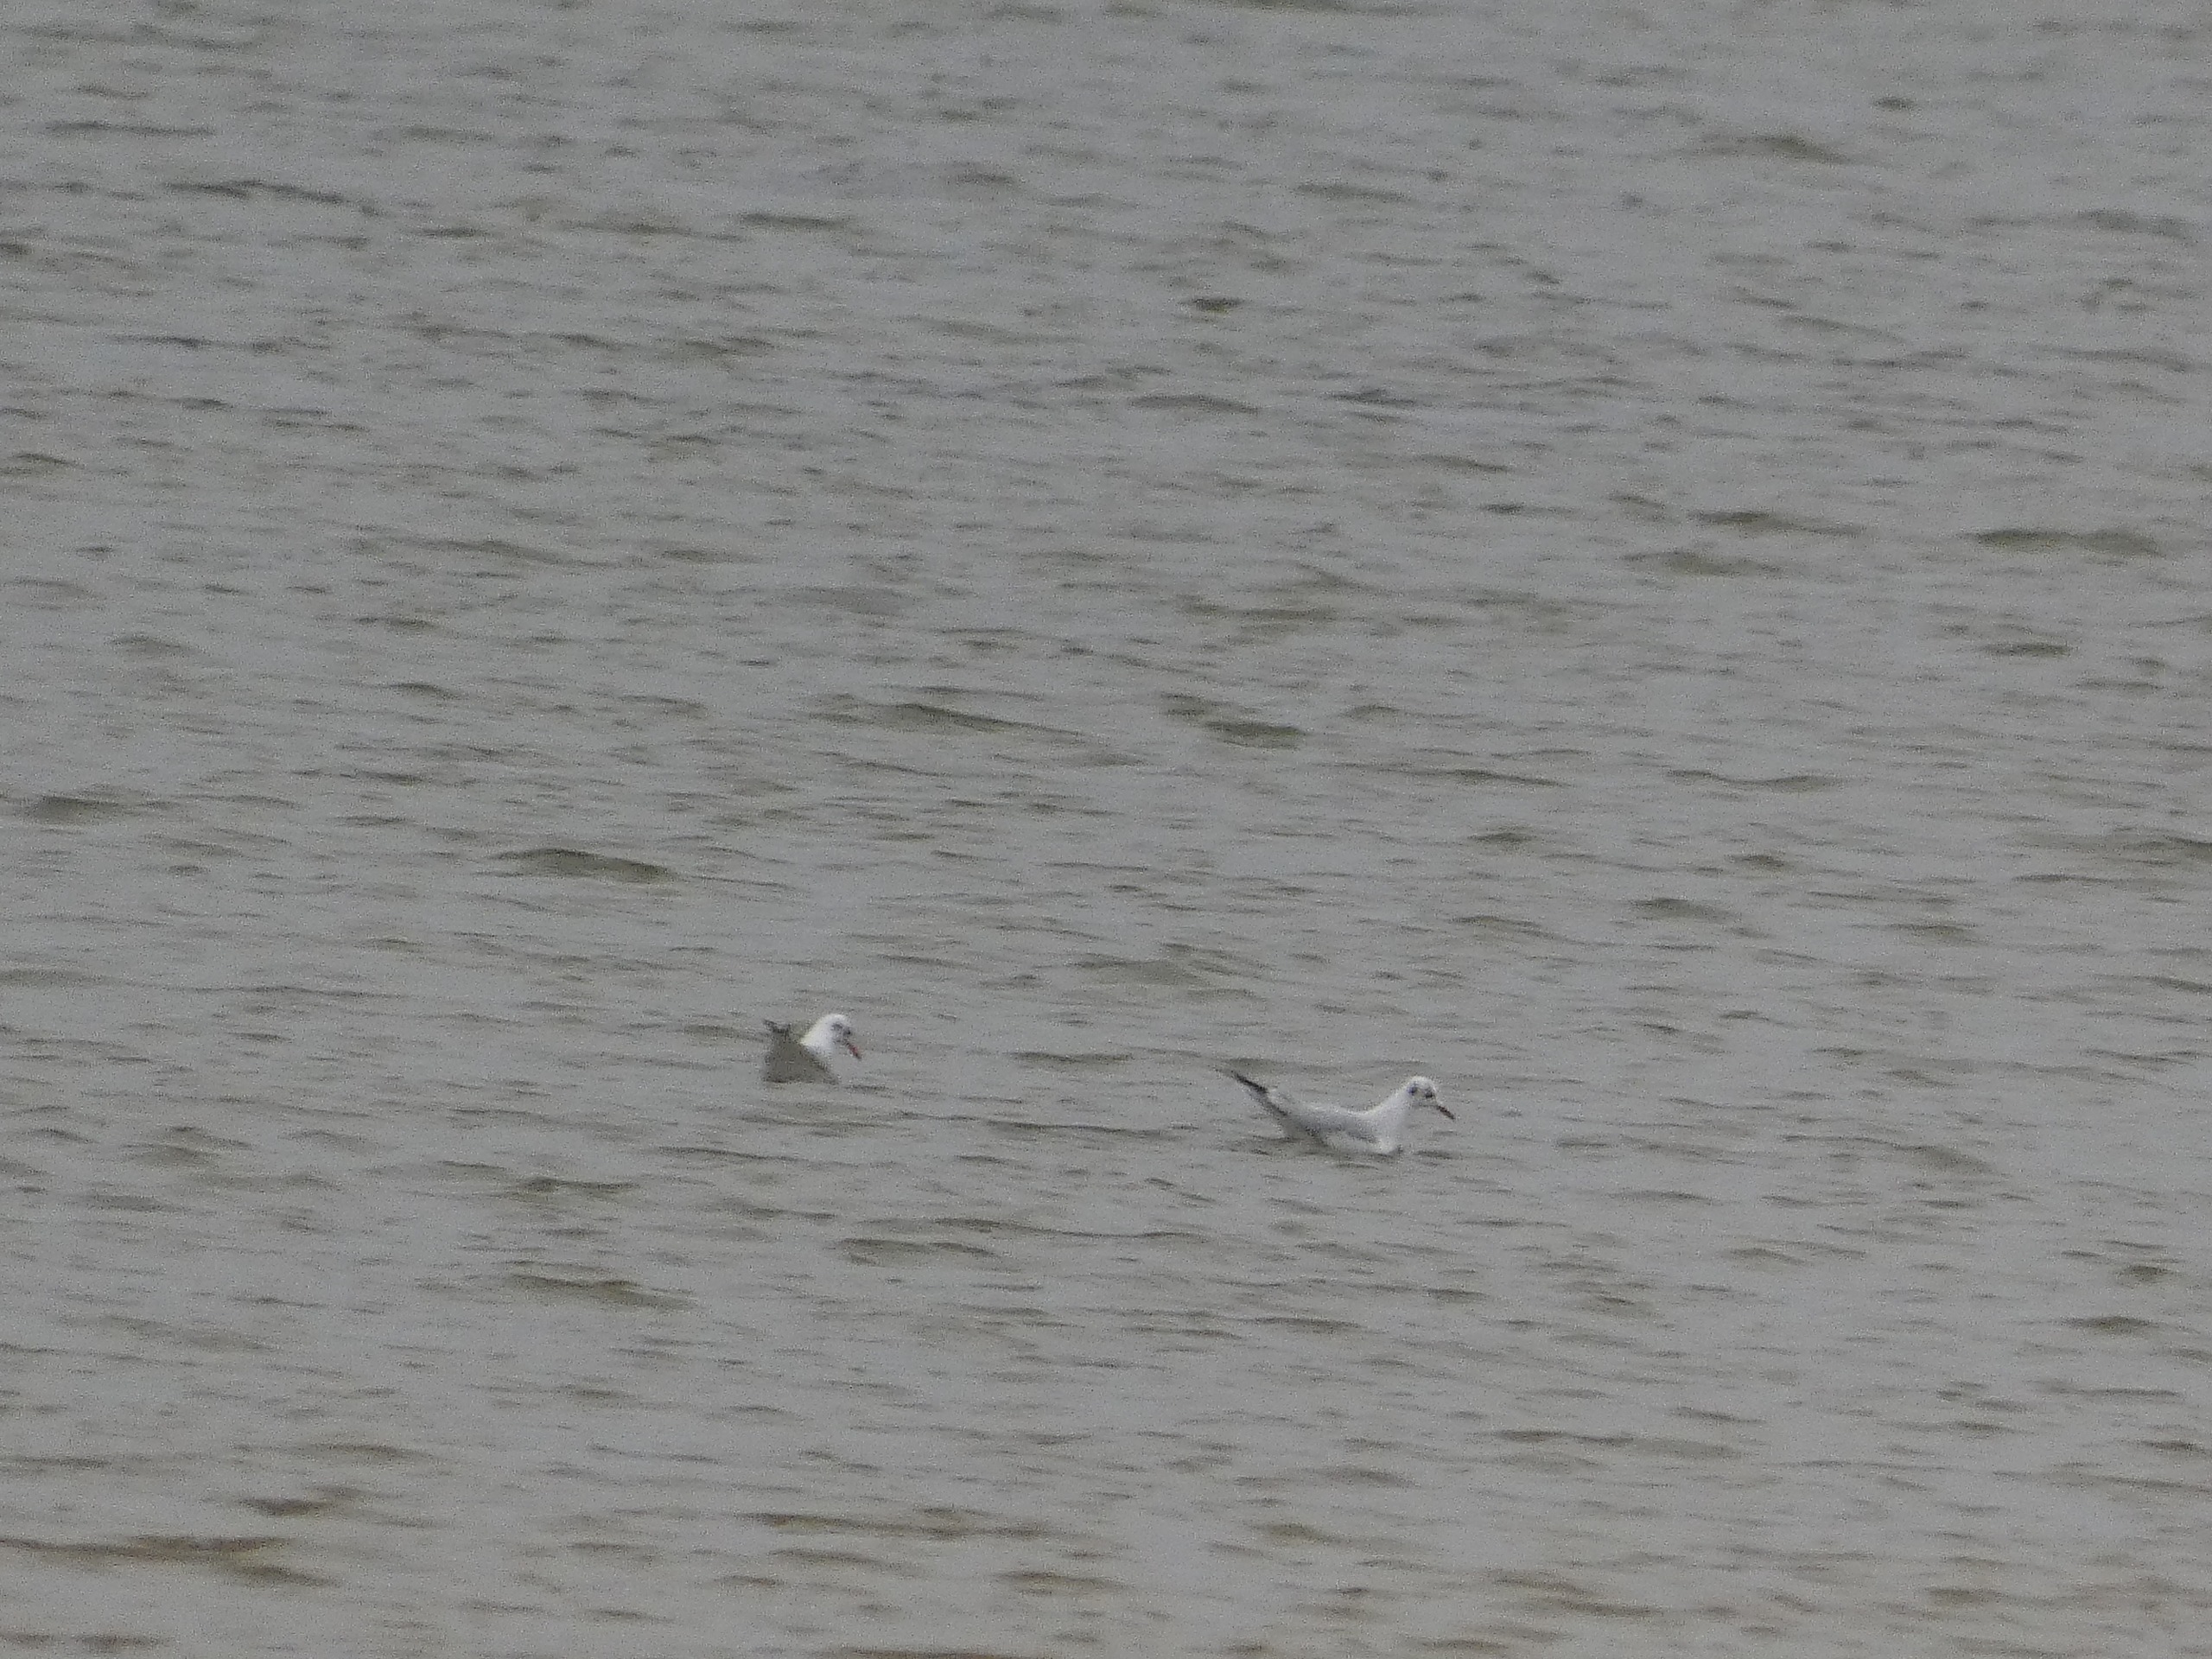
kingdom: Animalia
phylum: Chordata
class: Aves
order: Charadriiformes
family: Laridae
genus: Chroicocephalus
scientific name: Chroicocephalus ridibundus
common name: Hættemåge
